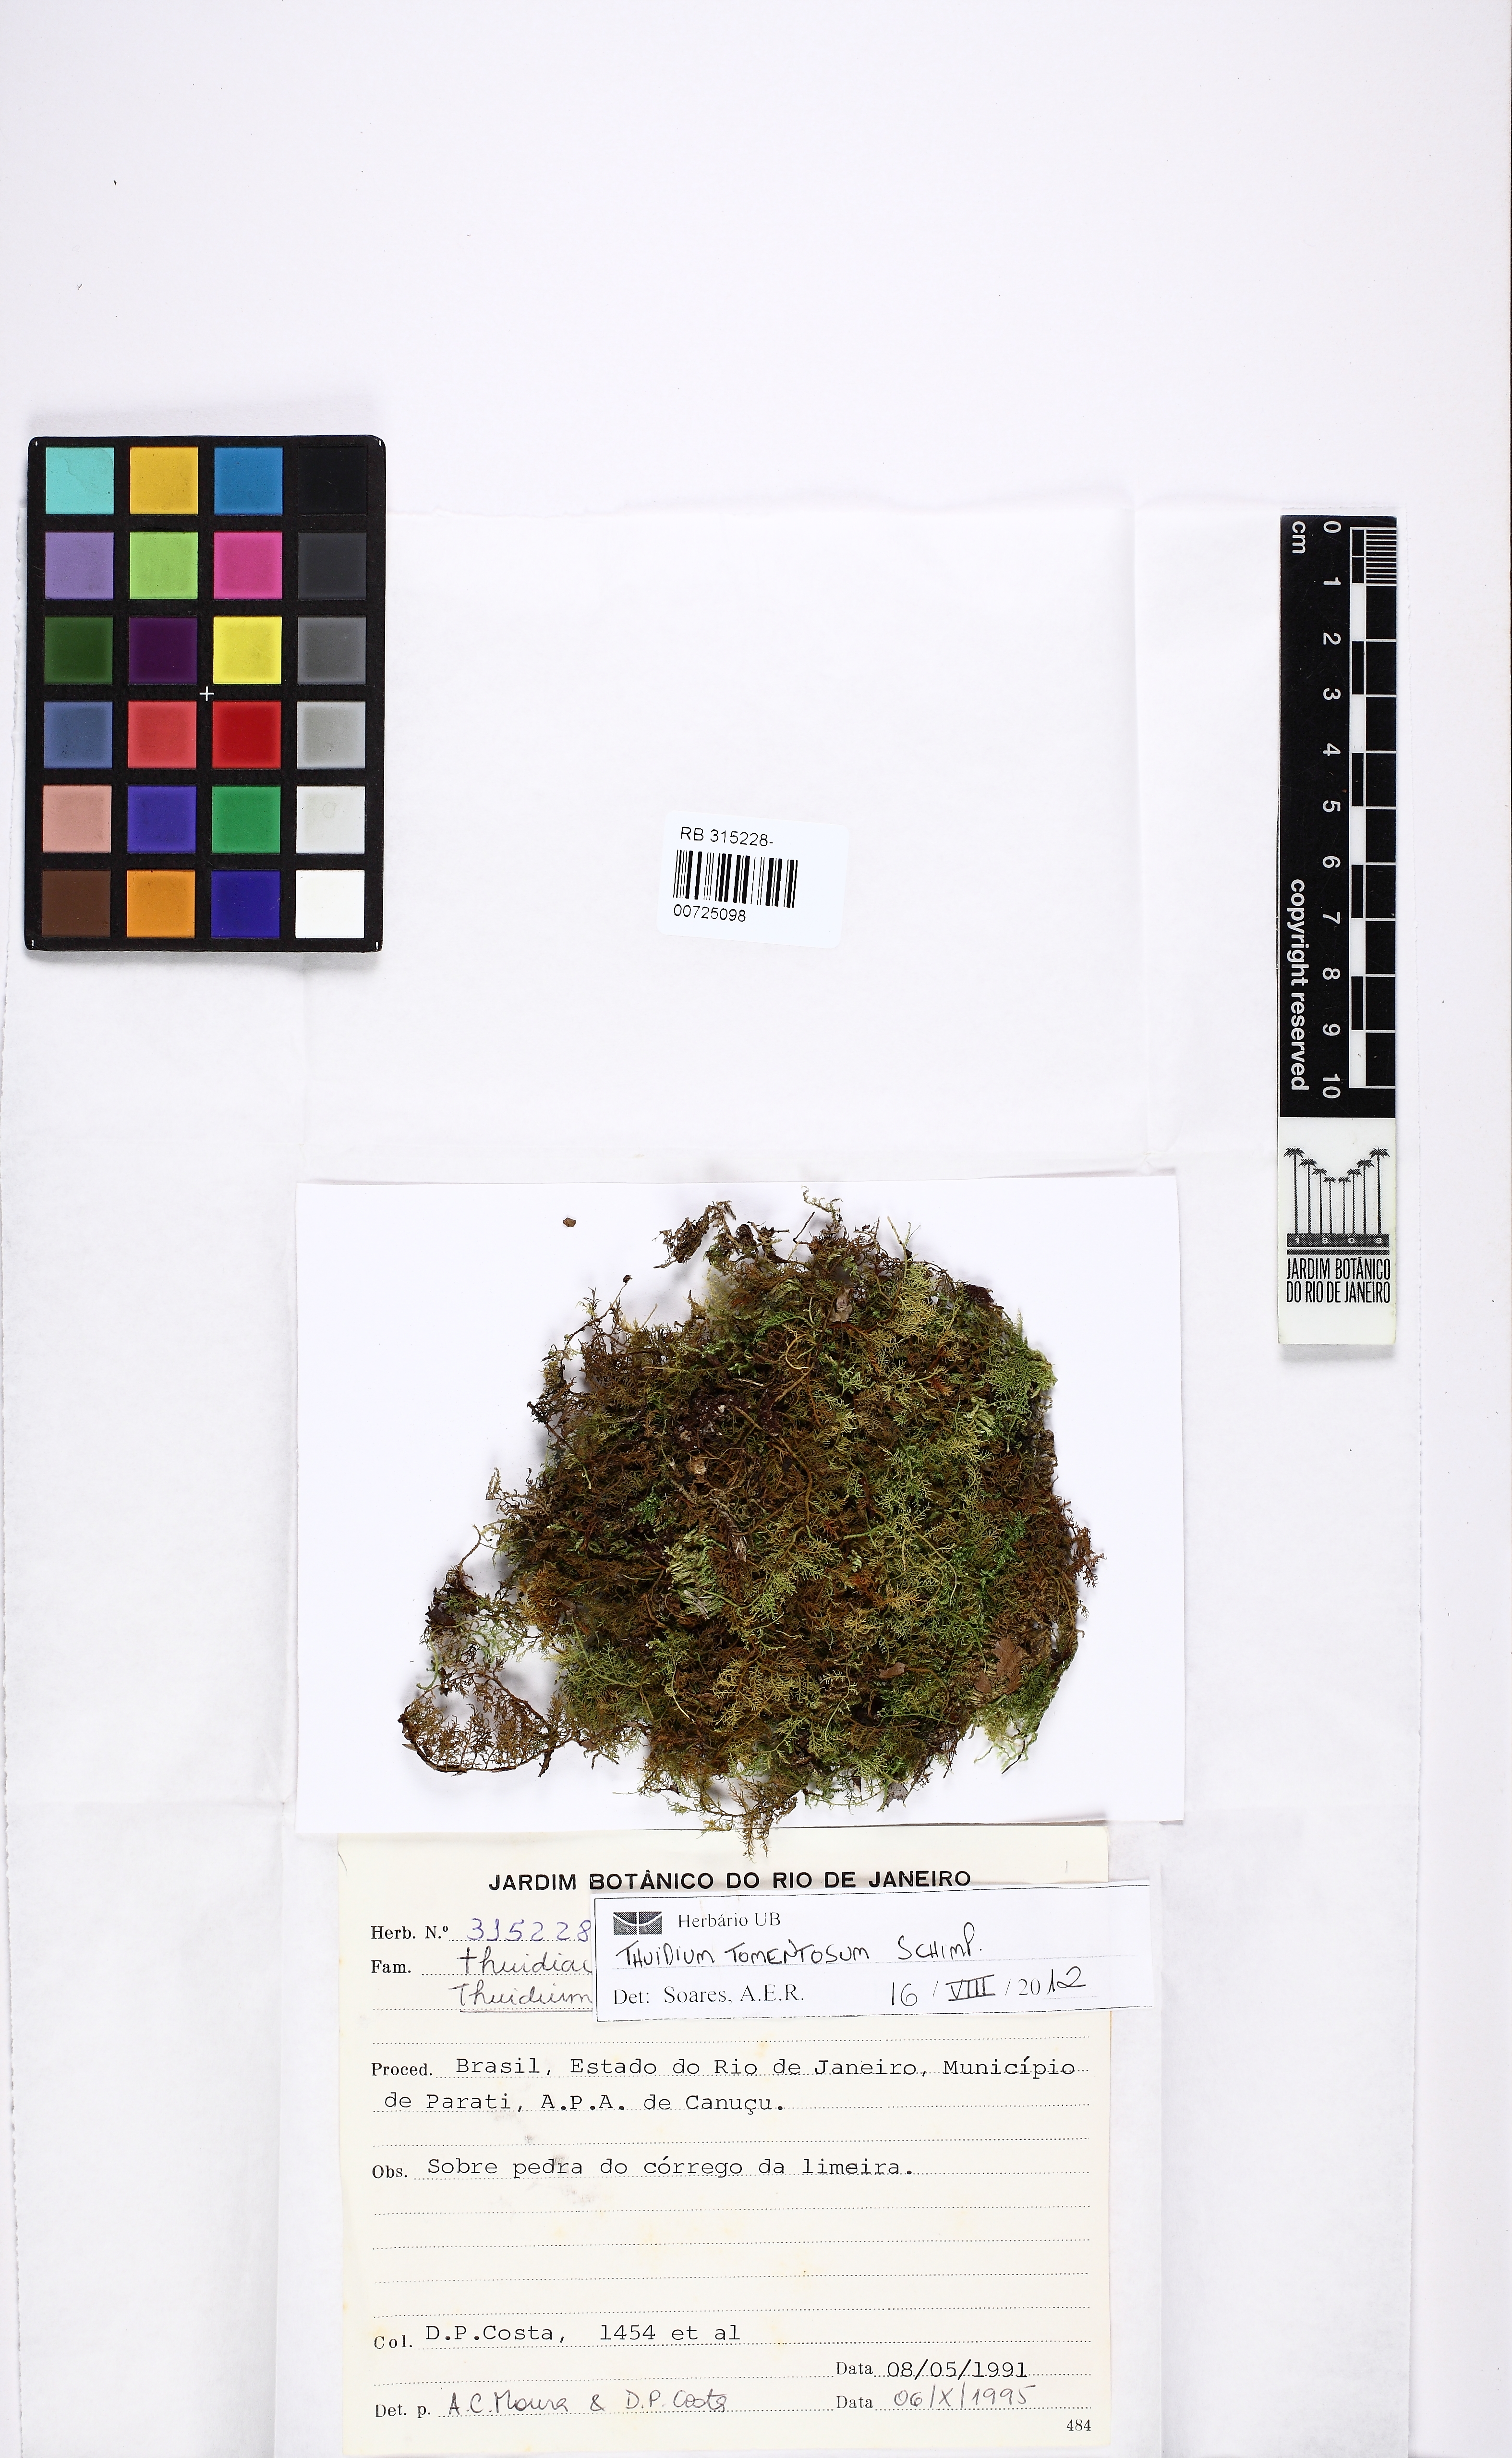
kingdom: Plantae
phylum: Bryophyta
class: Bryopsida
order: Hypnales
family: Thuidiaceae
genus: Thuidium
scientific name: Thuidium tomentosum
